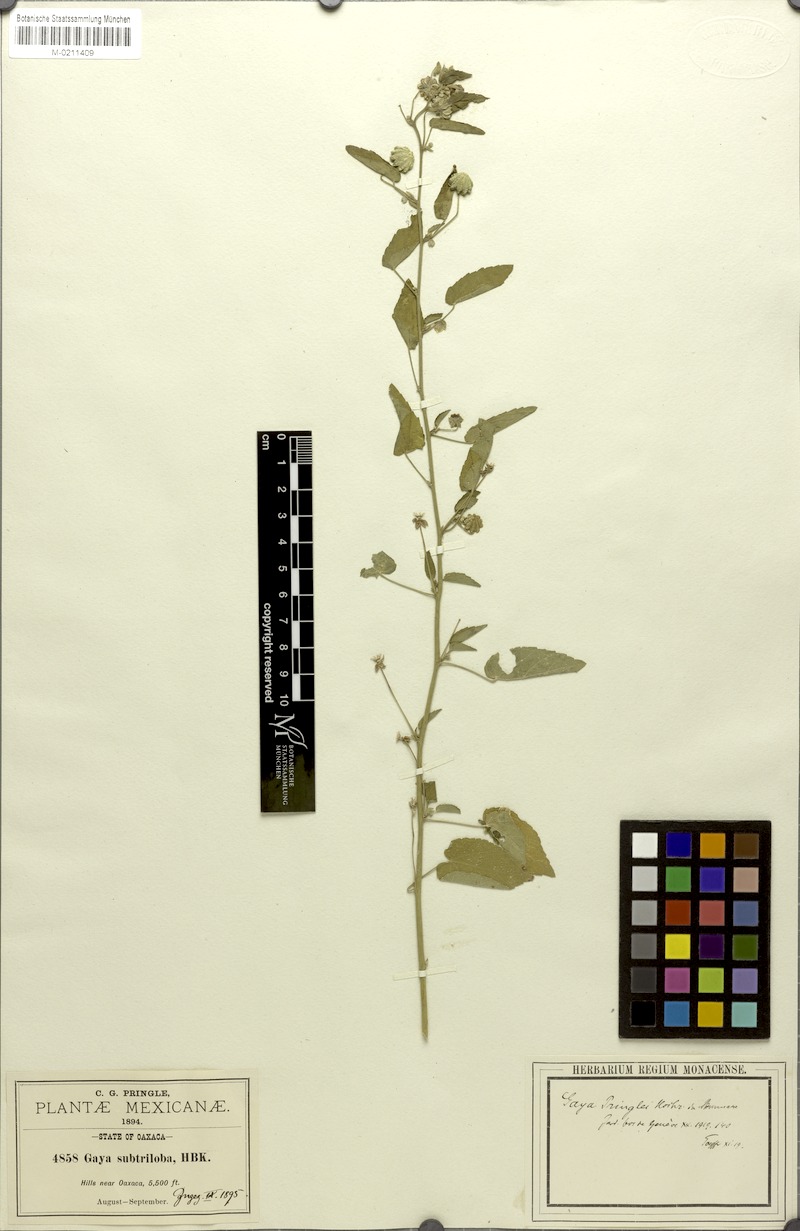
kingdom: Plantae
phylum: Tracheophyta
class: Magnoliopsida
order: Malvales
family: Malvaceae
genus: Gaya
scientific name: Gaya minutiflora
